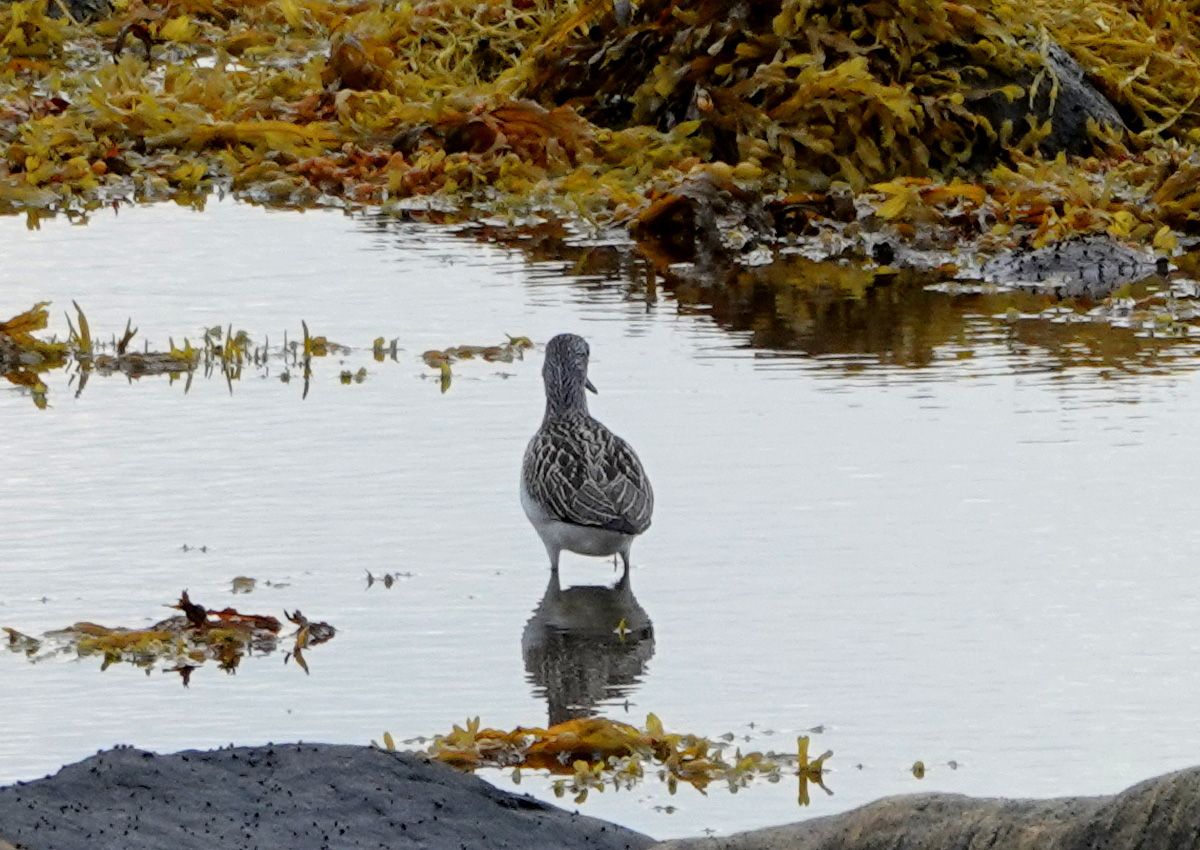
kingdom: Animalia
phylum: Chordata
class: Aves
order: Charadriiformes
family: Scolopacidae
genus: Tringa
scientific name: Tringa nebularia
